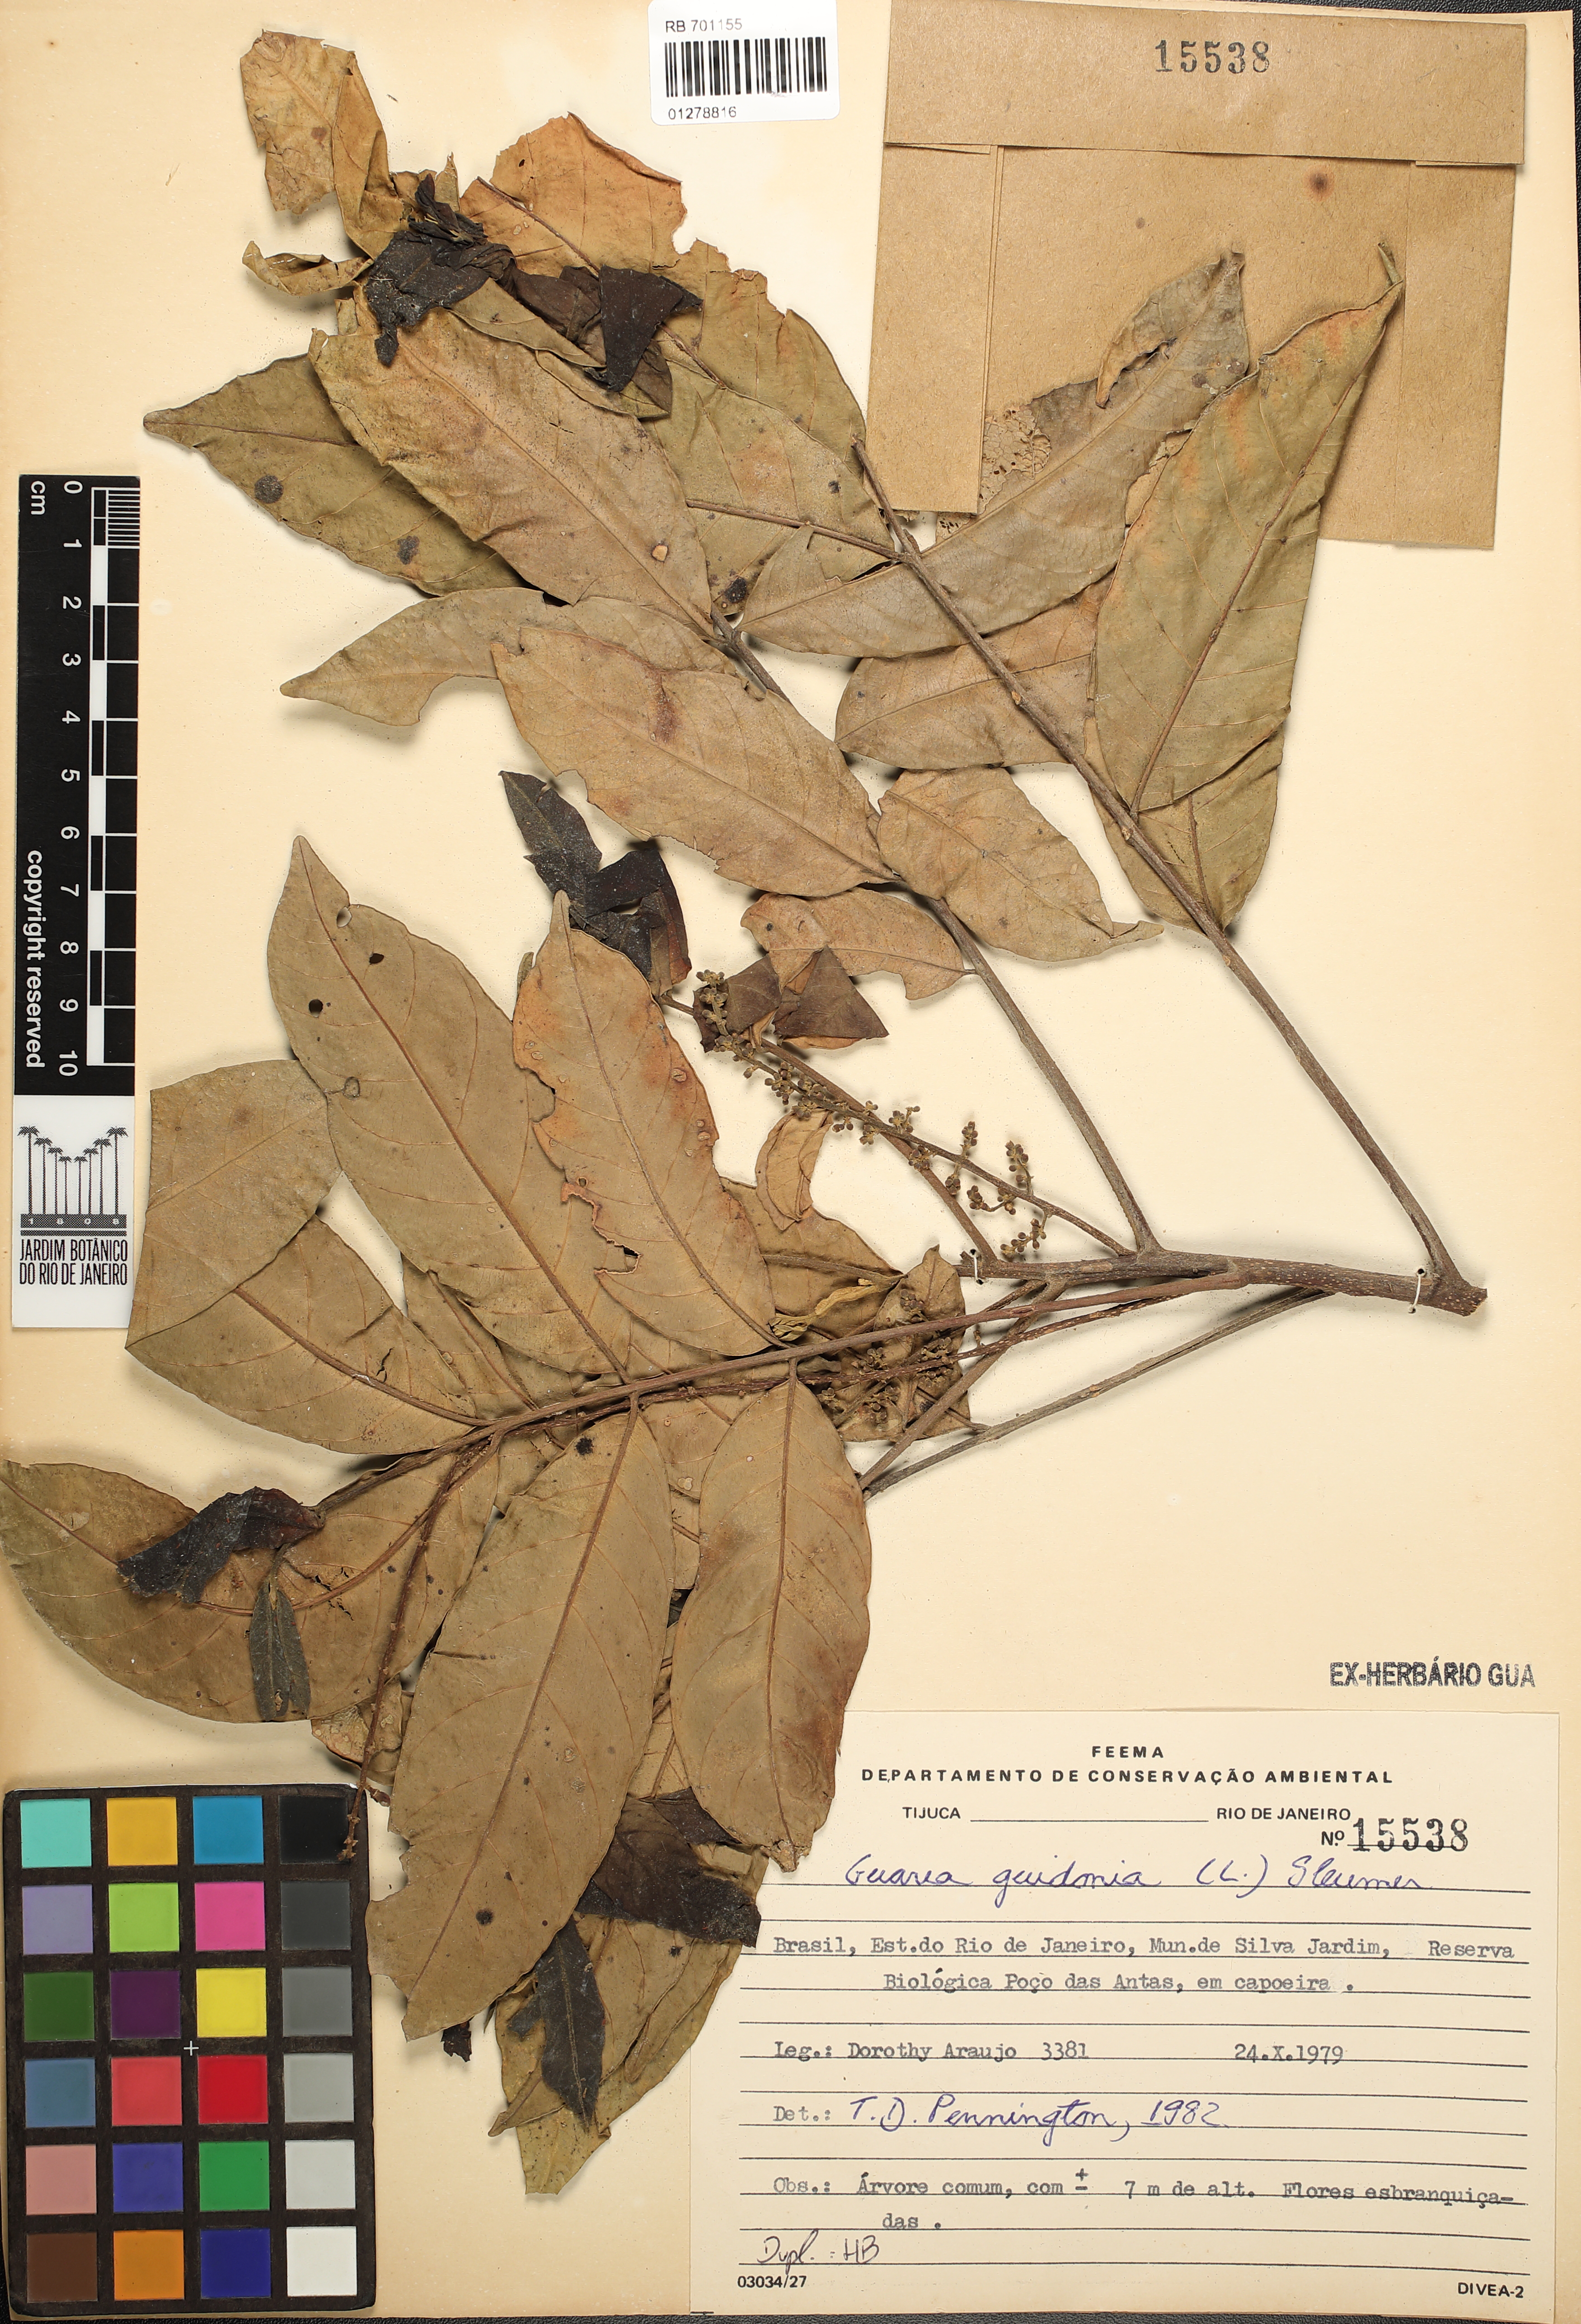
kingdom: Plantae
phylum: Tracheophyta
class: Magnoliopsida
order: Sapindales
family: Meliaceae
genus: Guarea
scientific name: Guarea guidonia
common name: American muskwood
